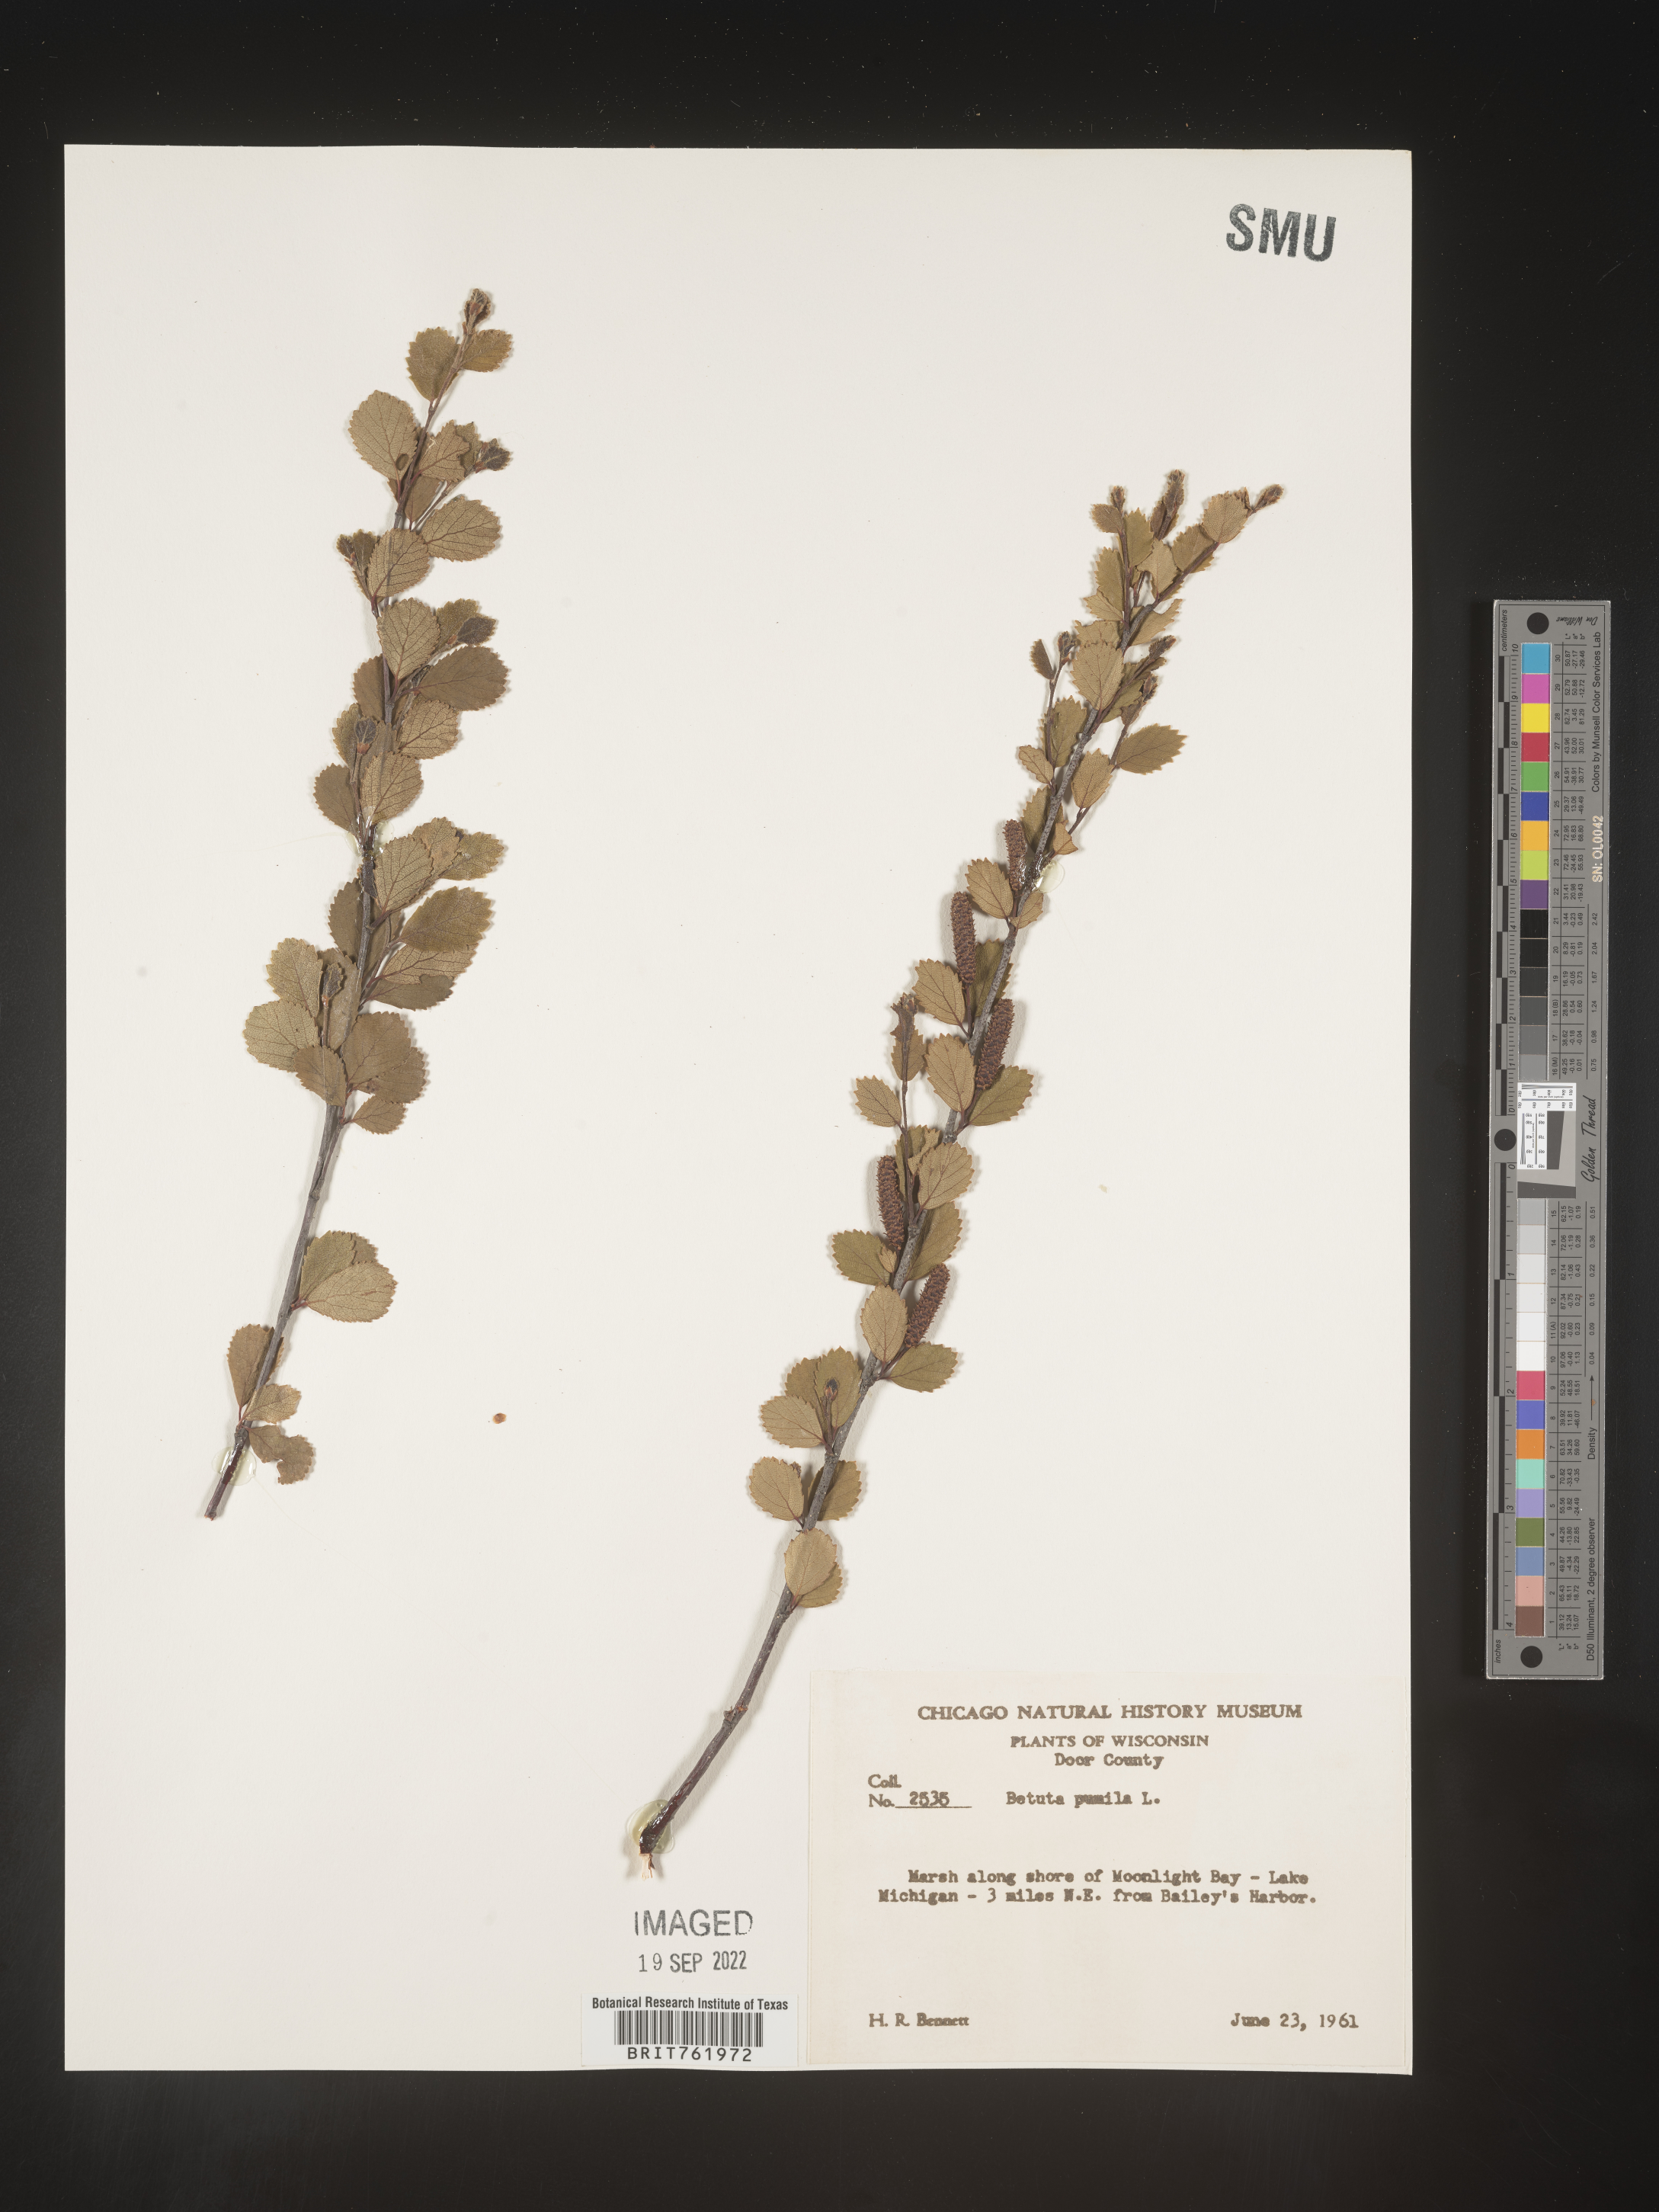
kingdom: Plantae
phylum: Tracheophyta
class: Magnoliopsida
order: Fagales
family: Betulaceae
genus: Betula
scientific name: Betula pumila
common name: Bog birch
